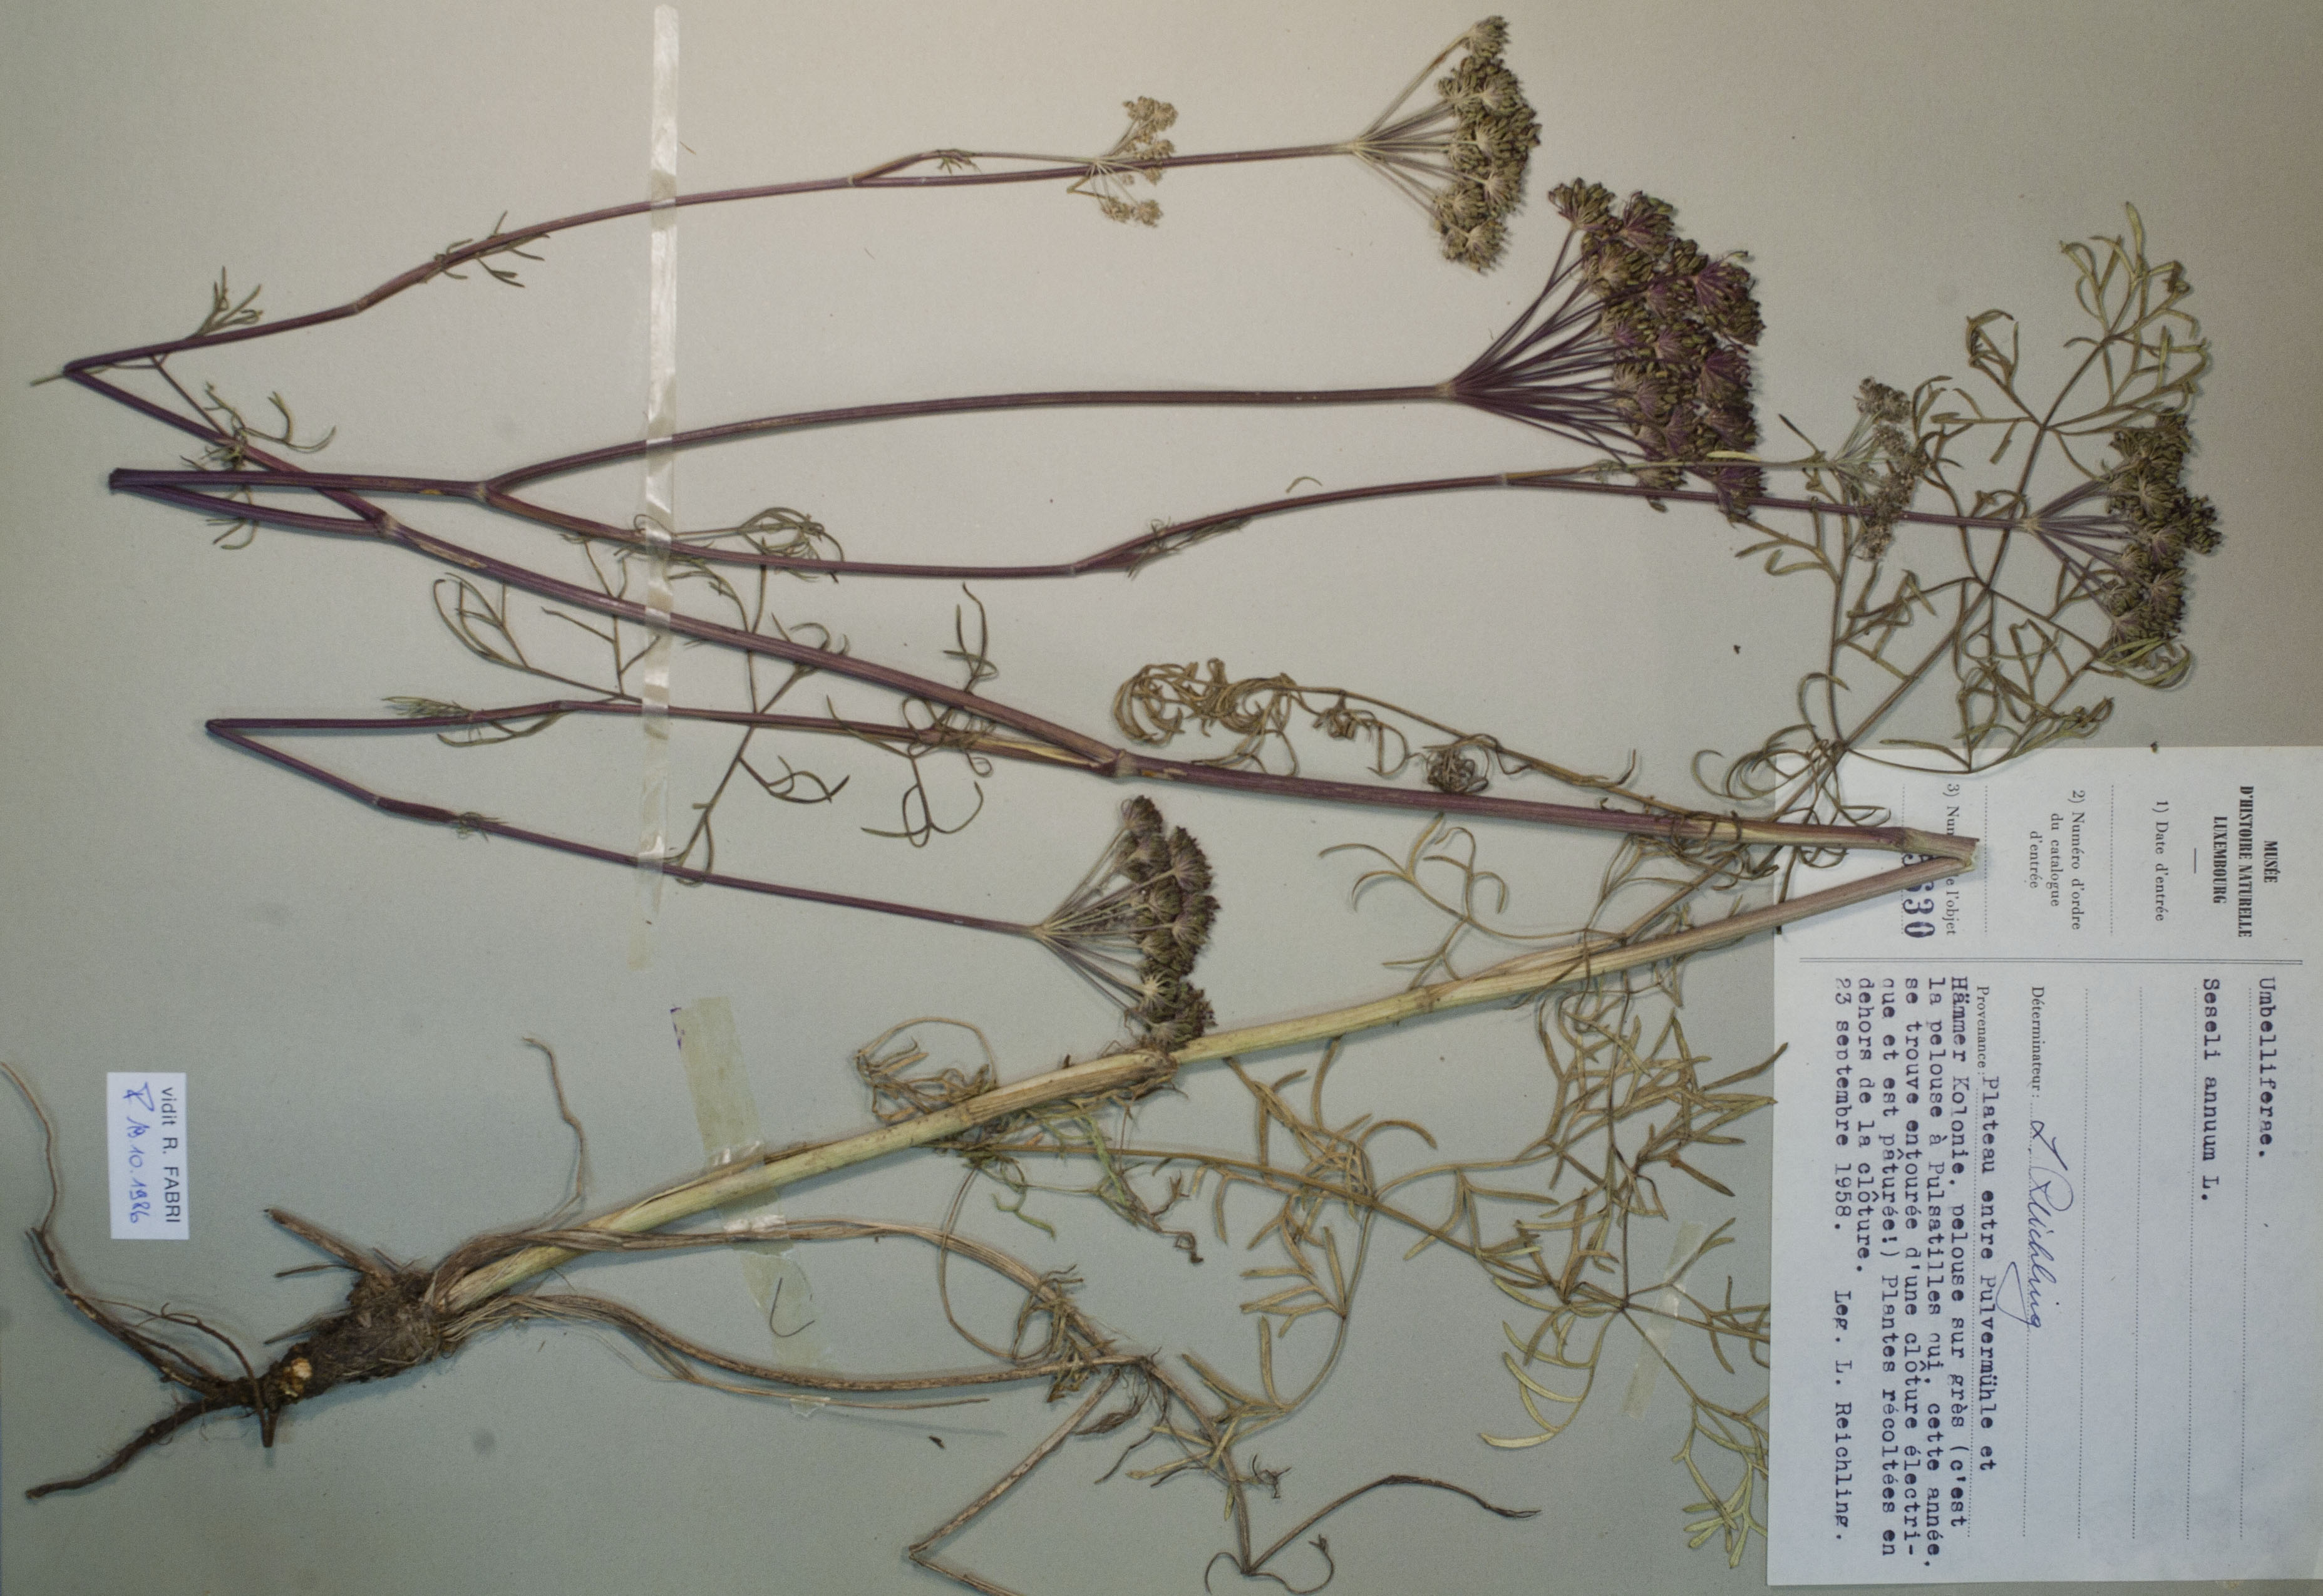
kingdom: Plantae
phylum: Tracheophyta
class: Magnoliopsida
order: Apiales
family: Apiaceae
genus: Seseli
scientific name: Seseli annuum
